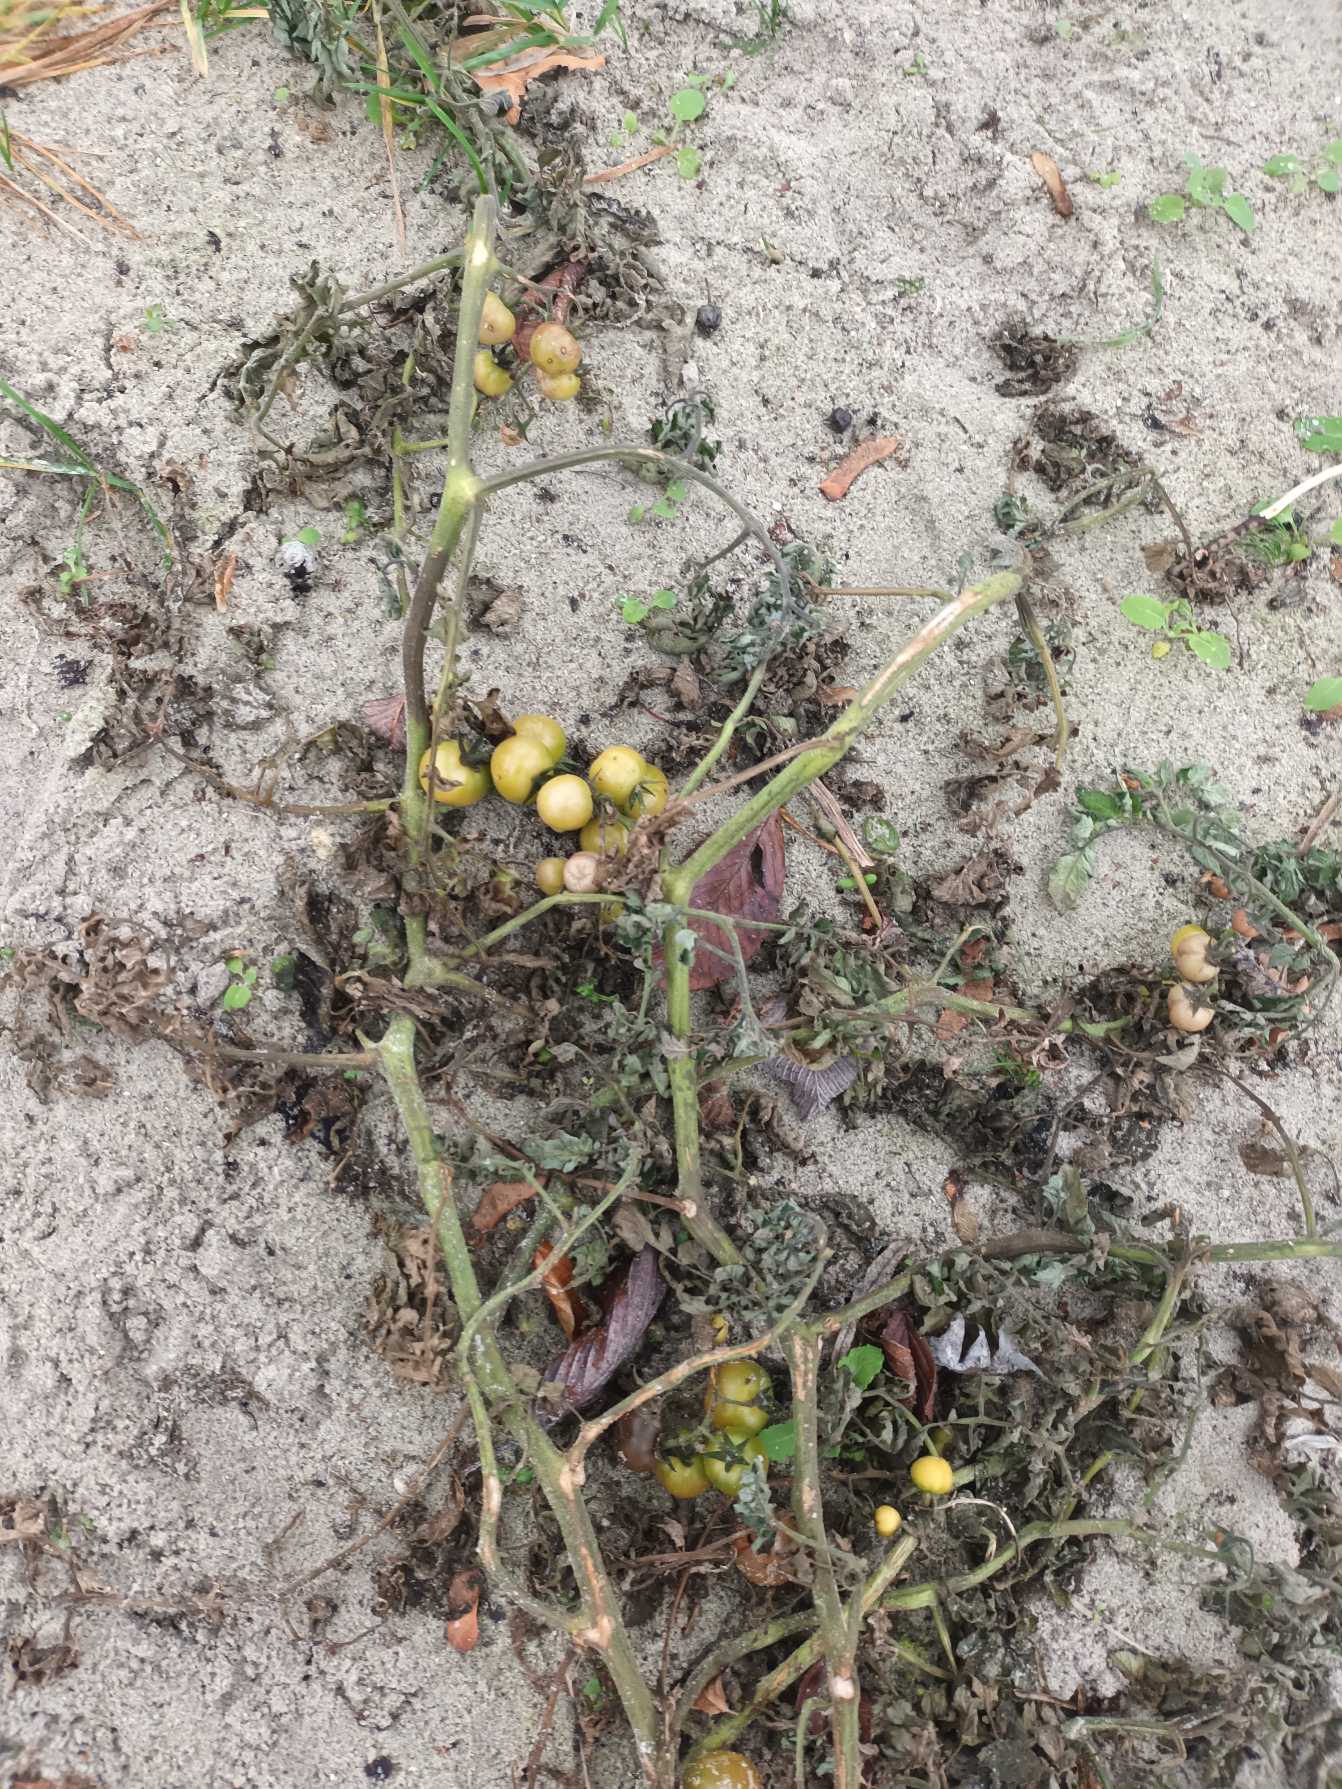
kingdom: Plantae
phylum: Tracheophyta
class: Magnoliopsida
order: Solanales
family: Solanaceae
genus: Solanum
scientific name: Solanum lycopersicum
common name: Tomat
